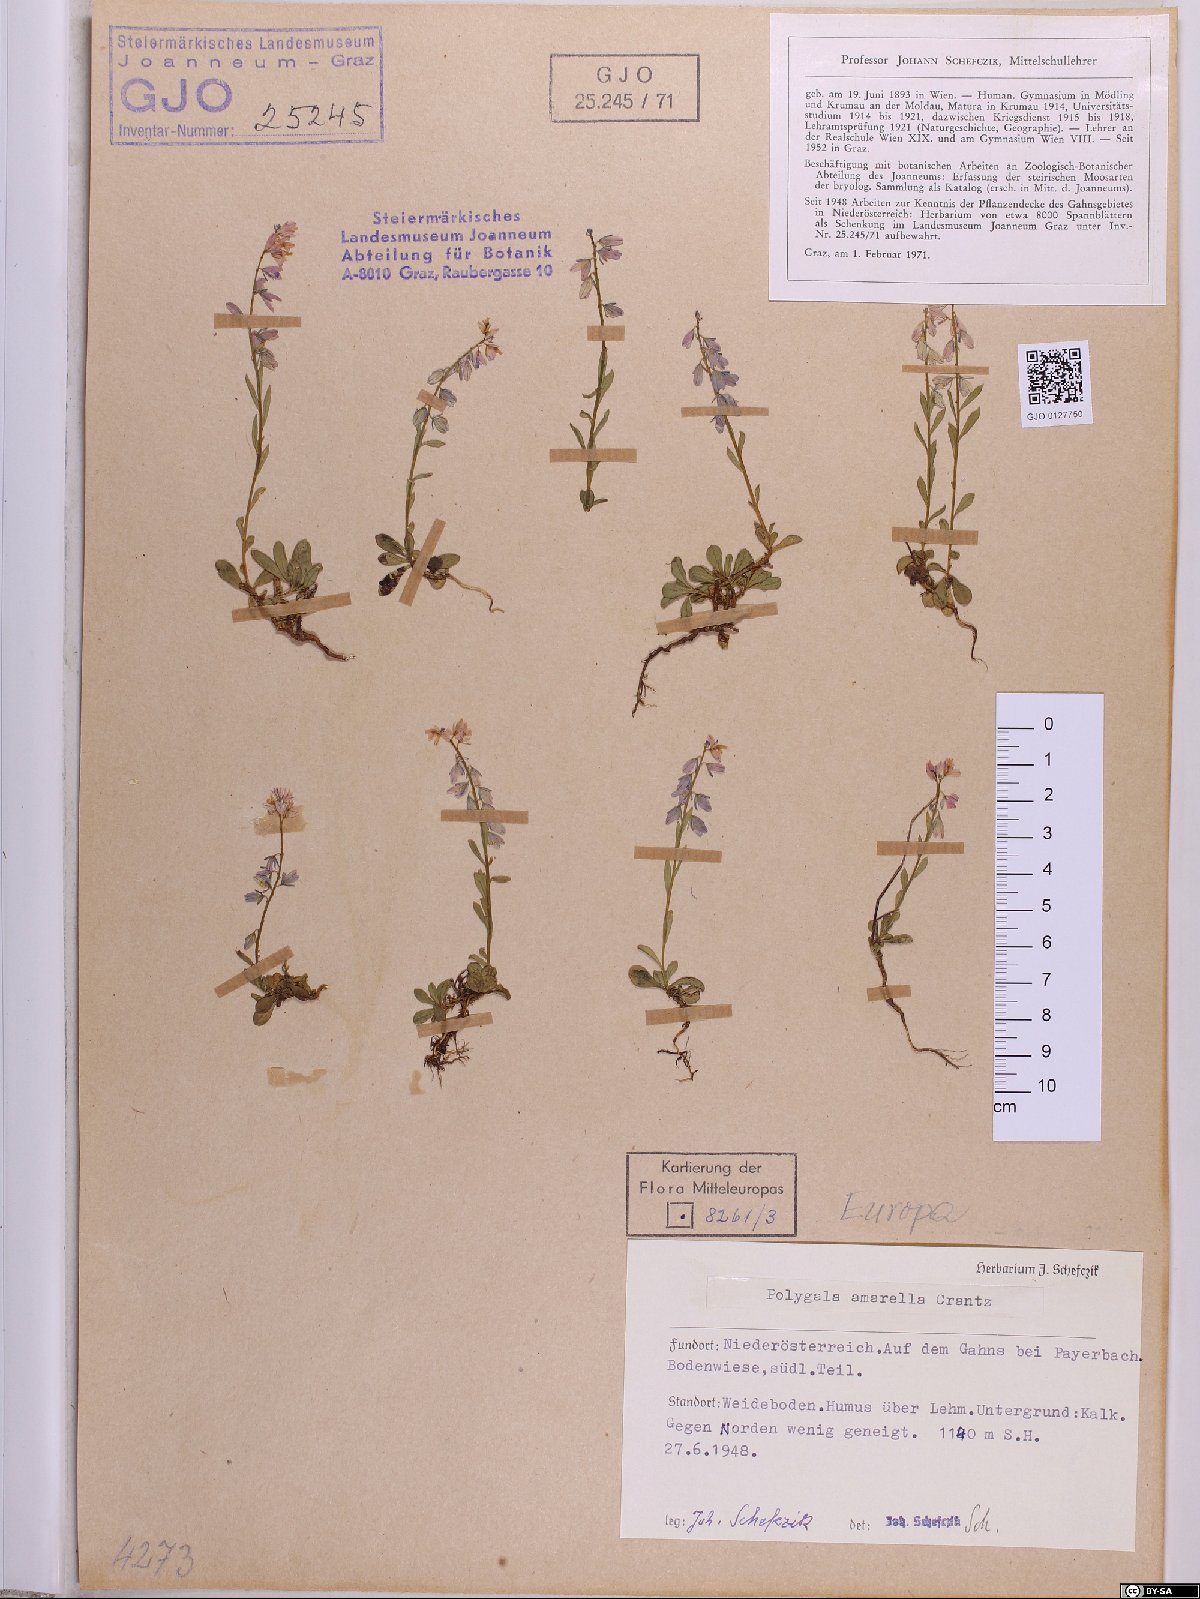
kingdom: Plantae
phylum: Tracheophyta
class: Magnoliopsida
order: Fabales
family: Polygalaceae
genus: Polygala
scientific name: Polygala amarella
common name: Dwarf milkwort
